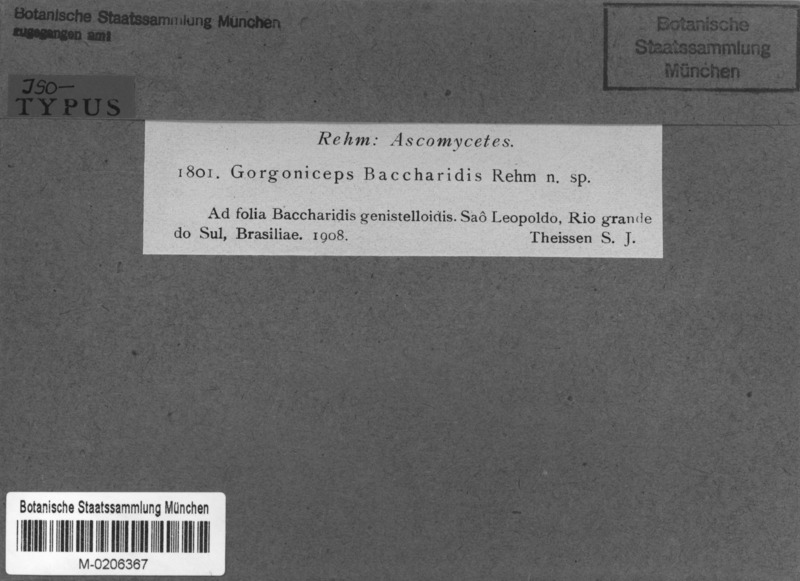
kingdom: Fungi
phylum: Ascomycota
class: Leotiomycetes
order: Helotiales
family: Helotiaceae
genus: Gorgoniceps
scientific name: Gorgoniceps baccharidis
